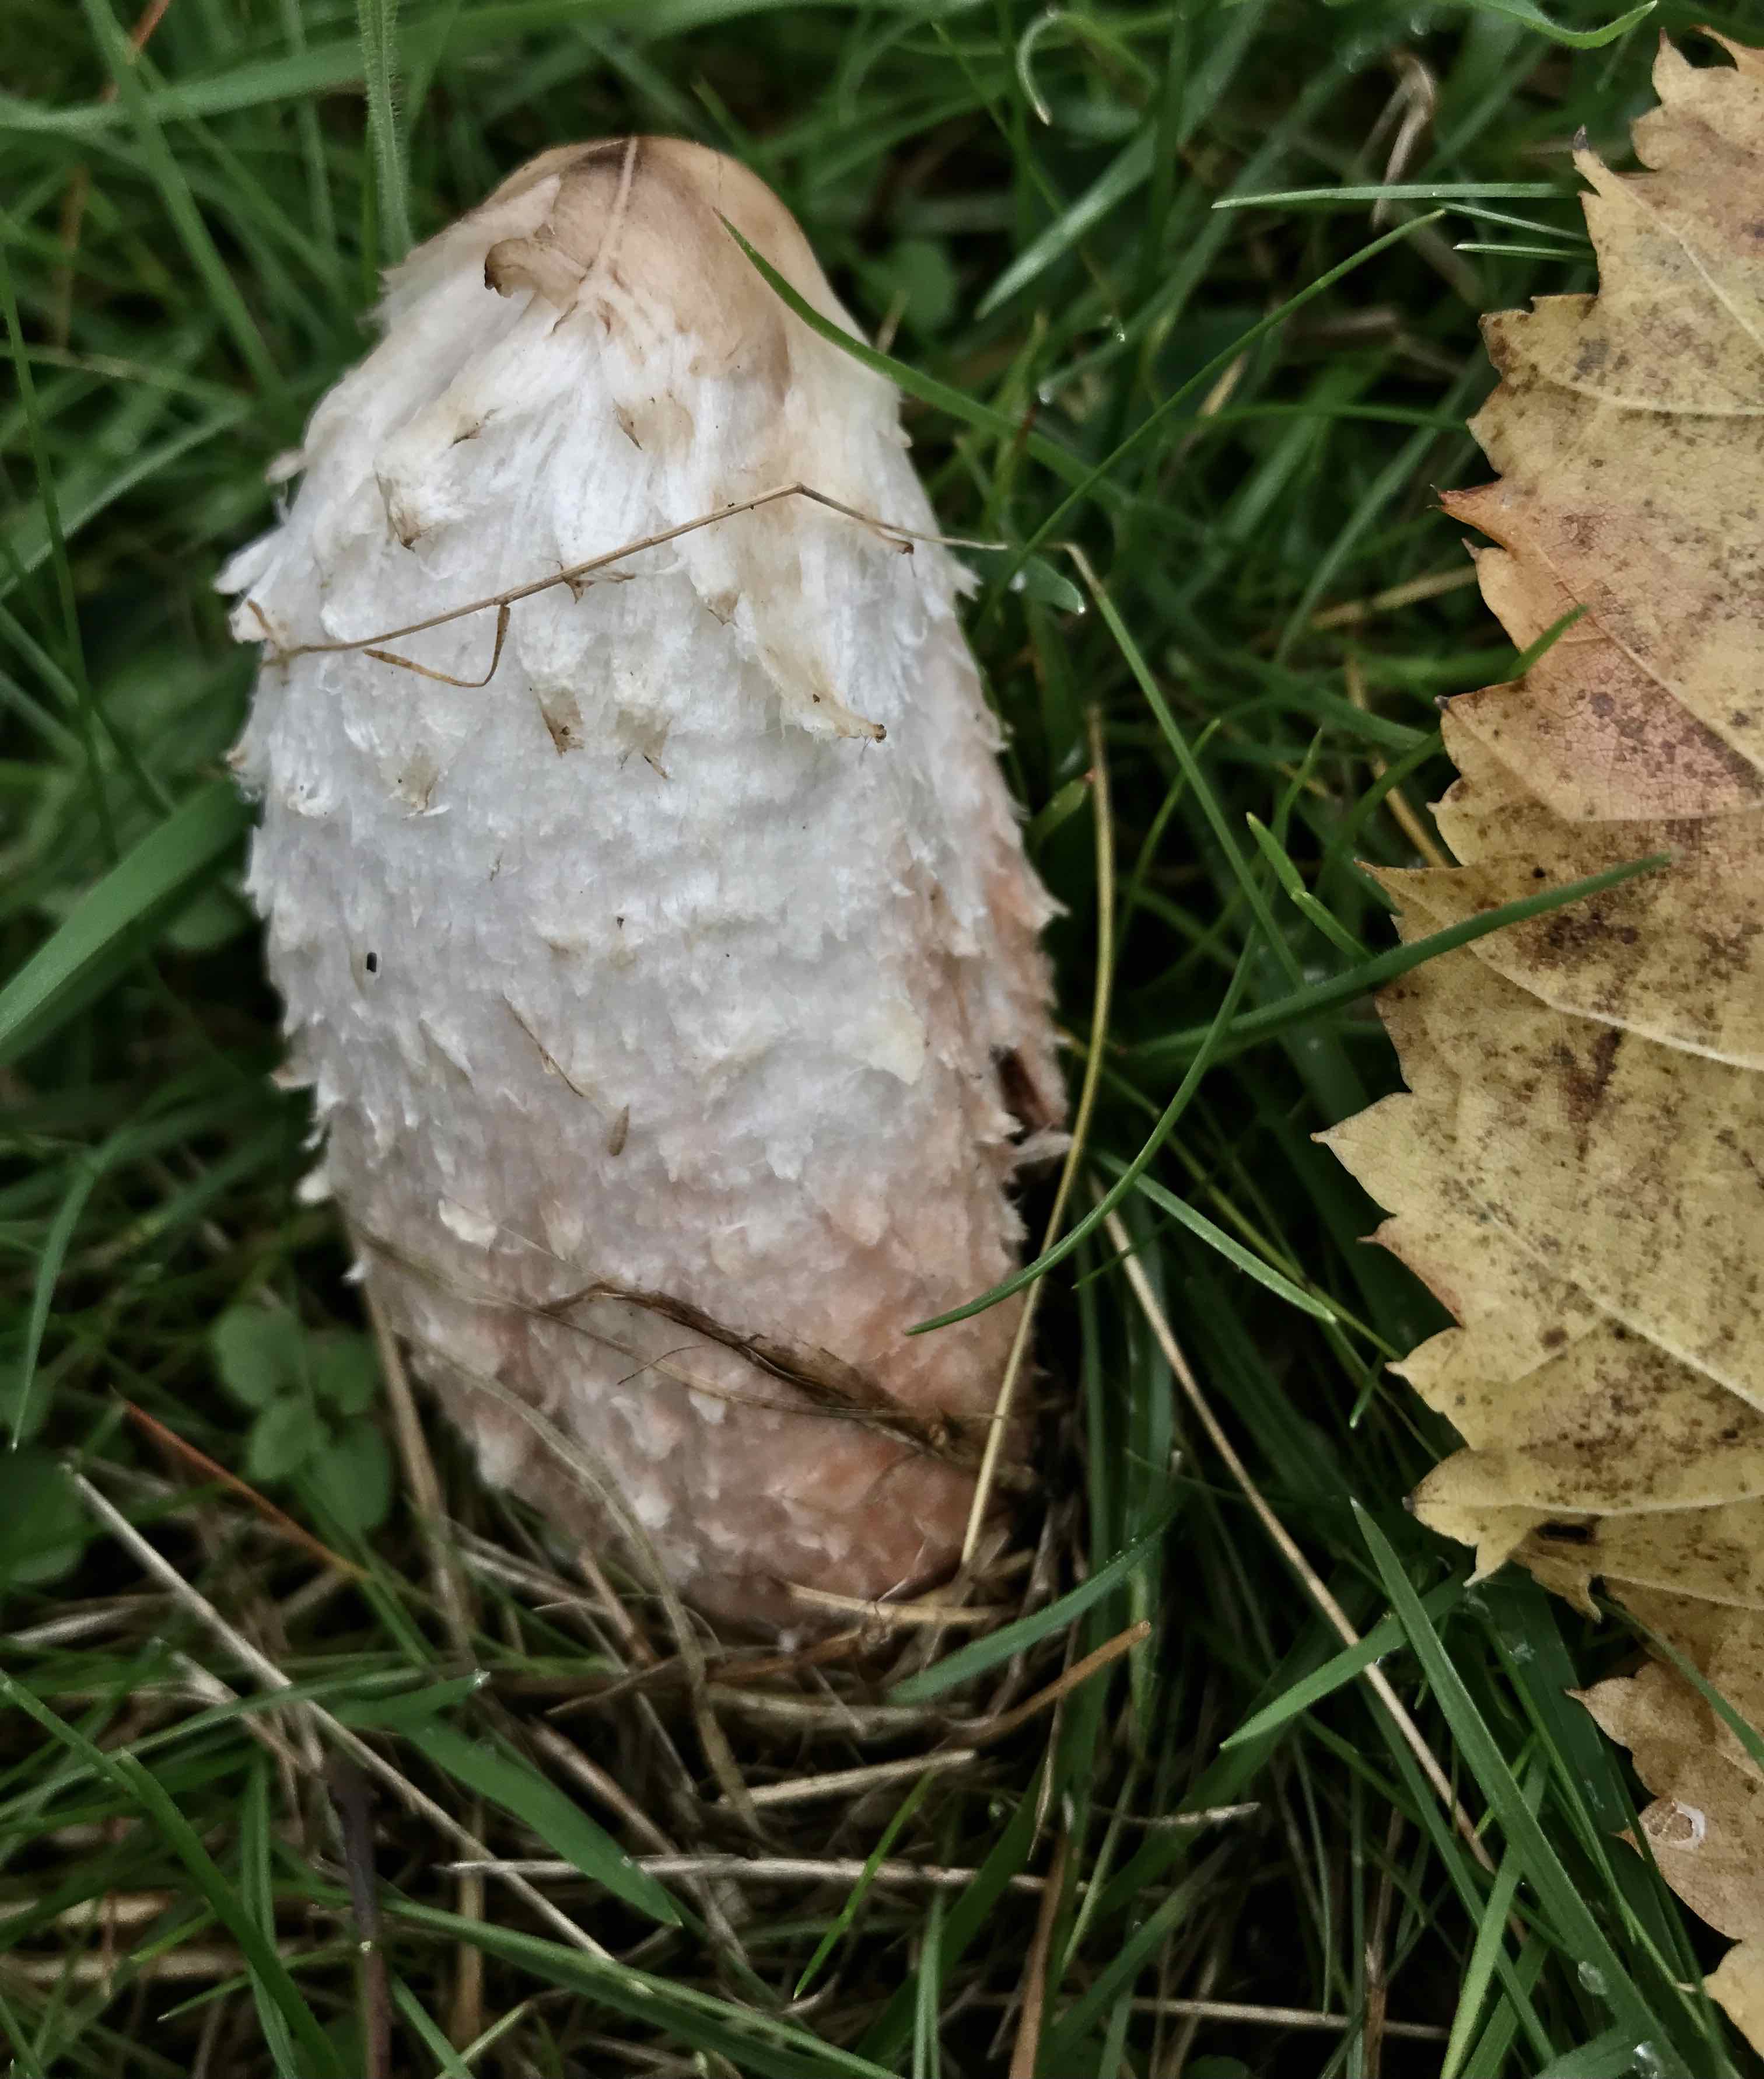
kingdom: Fungi
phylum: Basidiomycota
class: Agaricomycetes
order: Agaricales
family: Agaricaceae
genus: Coprinus
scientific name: Coprinus comatus
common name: stor parykhat
